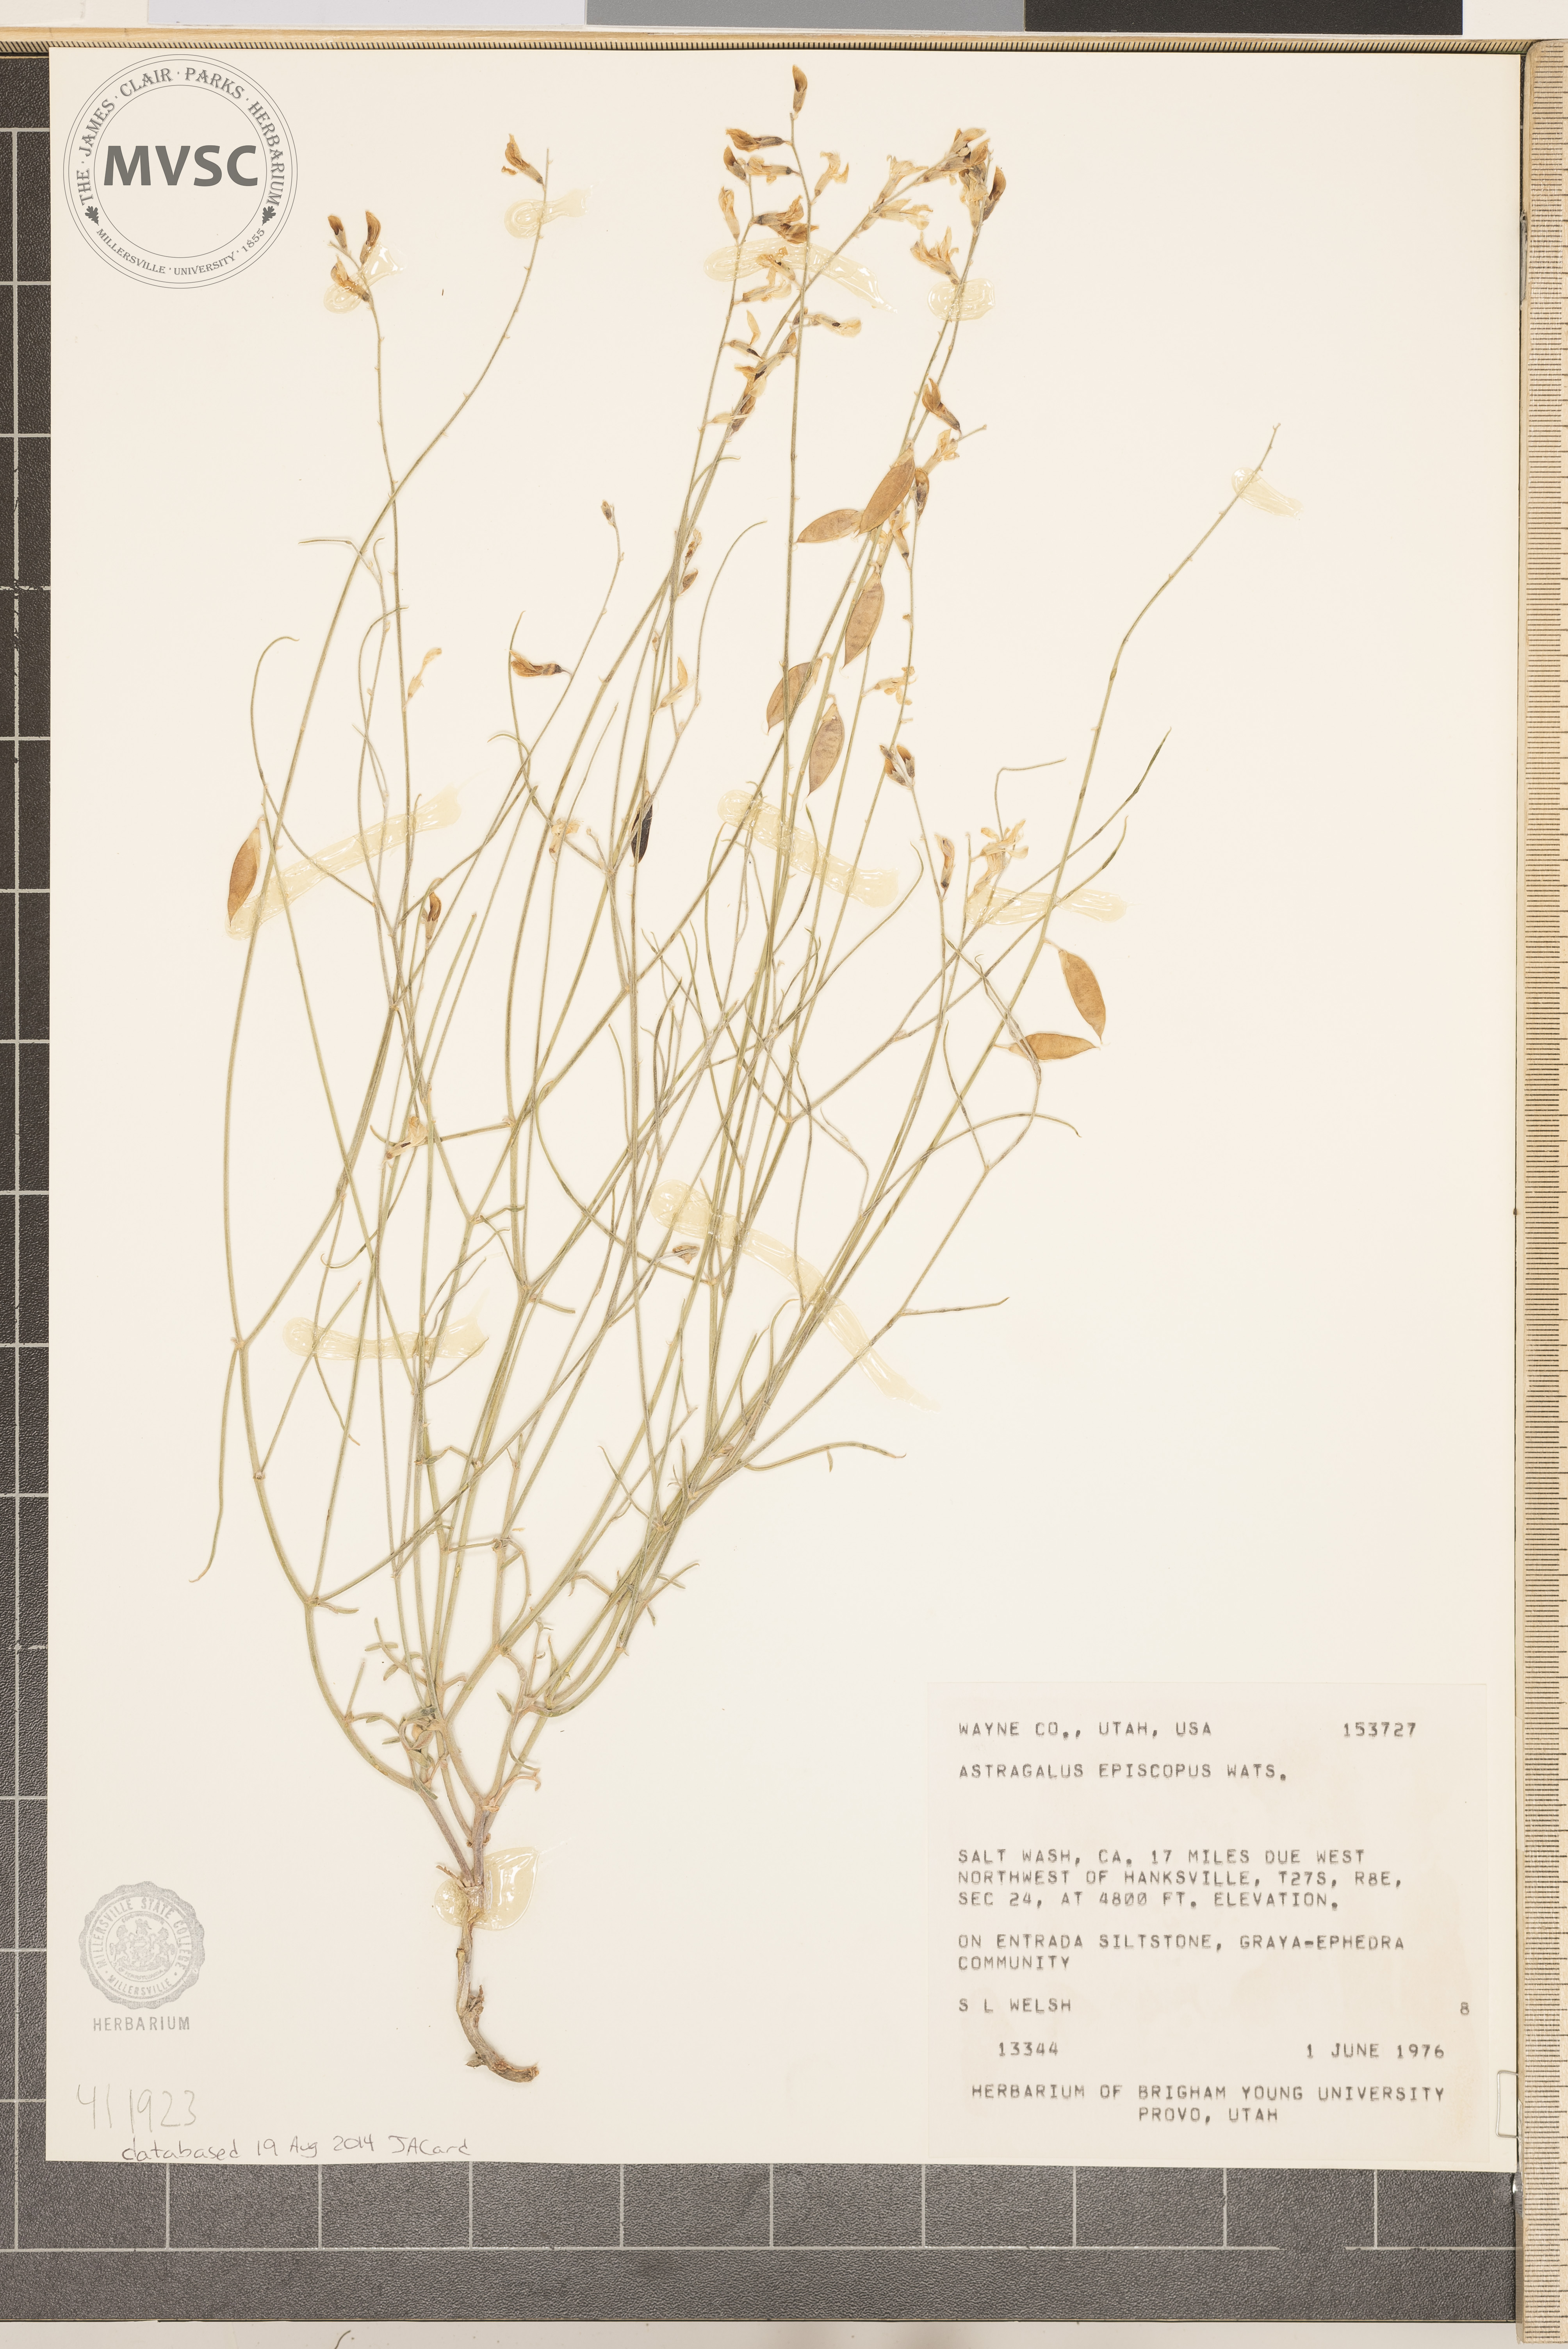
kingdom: Plantae
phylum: Tracheophyta
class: Magnoliopsida
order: Fabales
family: Fabaceae
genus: Astragalus
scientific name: Astragalus episcopus
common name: Bishop's milk-vetch
